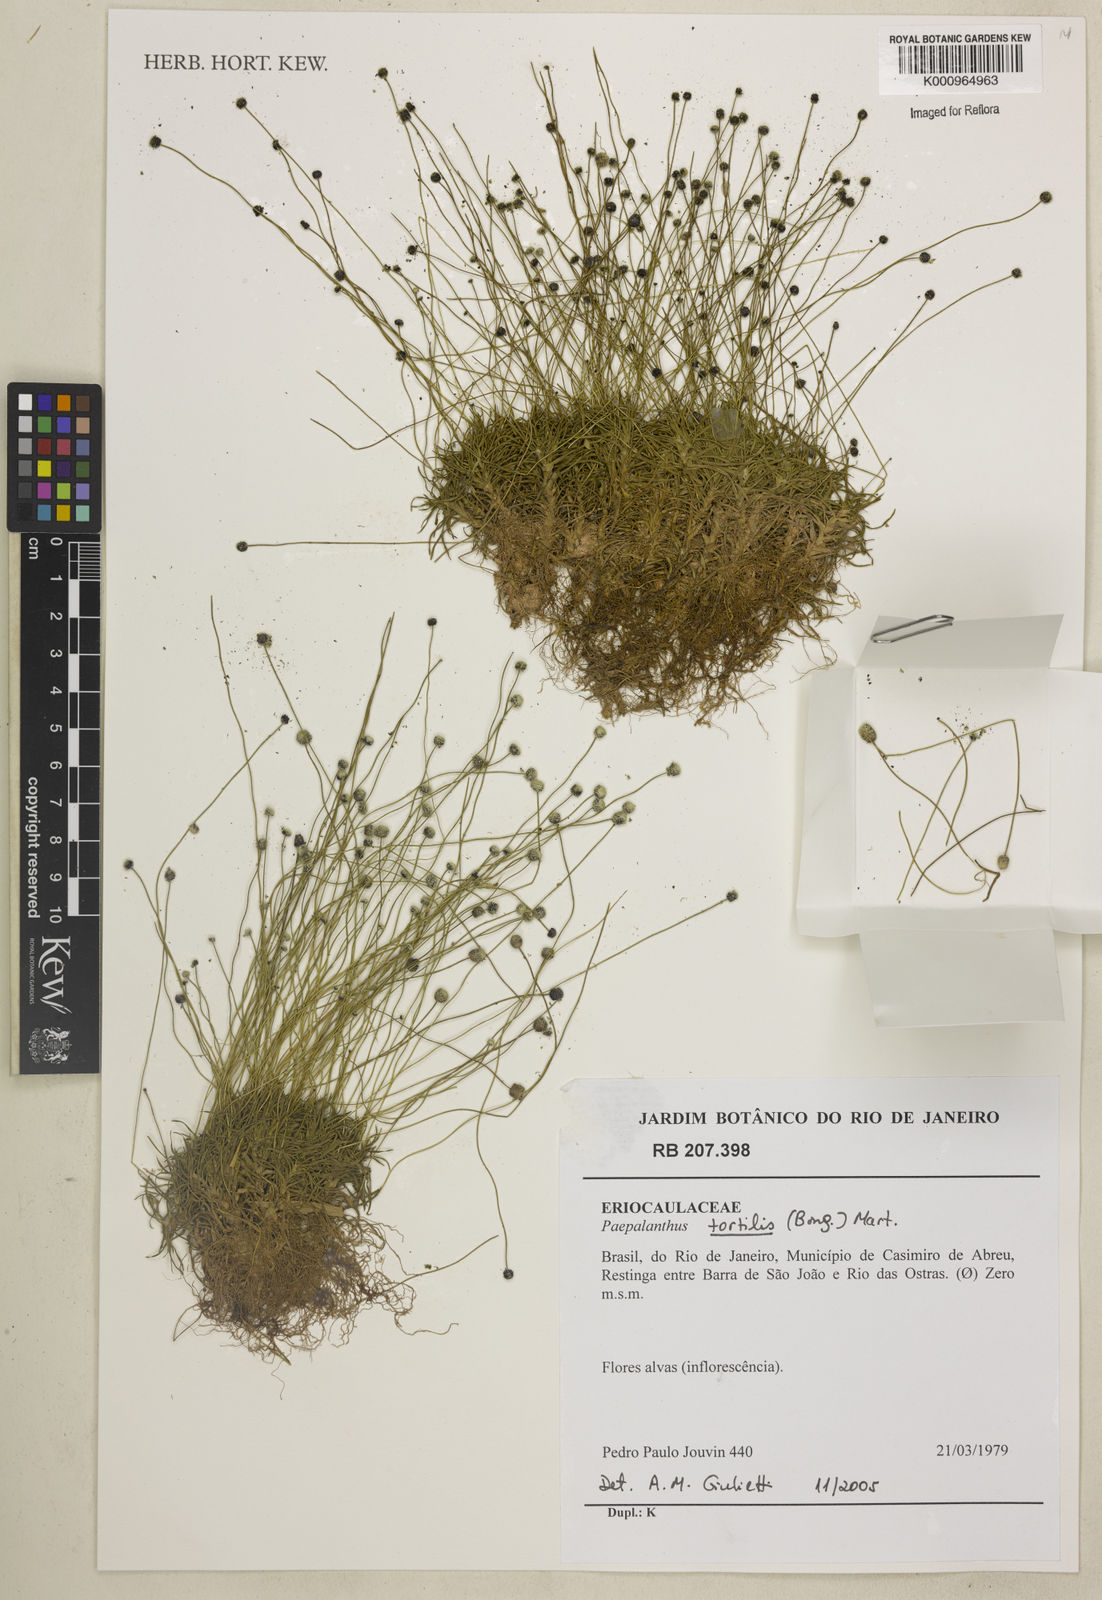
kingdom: Plantae
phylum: Tracheophyta
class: Liliopsida
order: Poales
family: Eriocaulaceae
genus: Paepalanthus
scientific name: Paepalanthus
